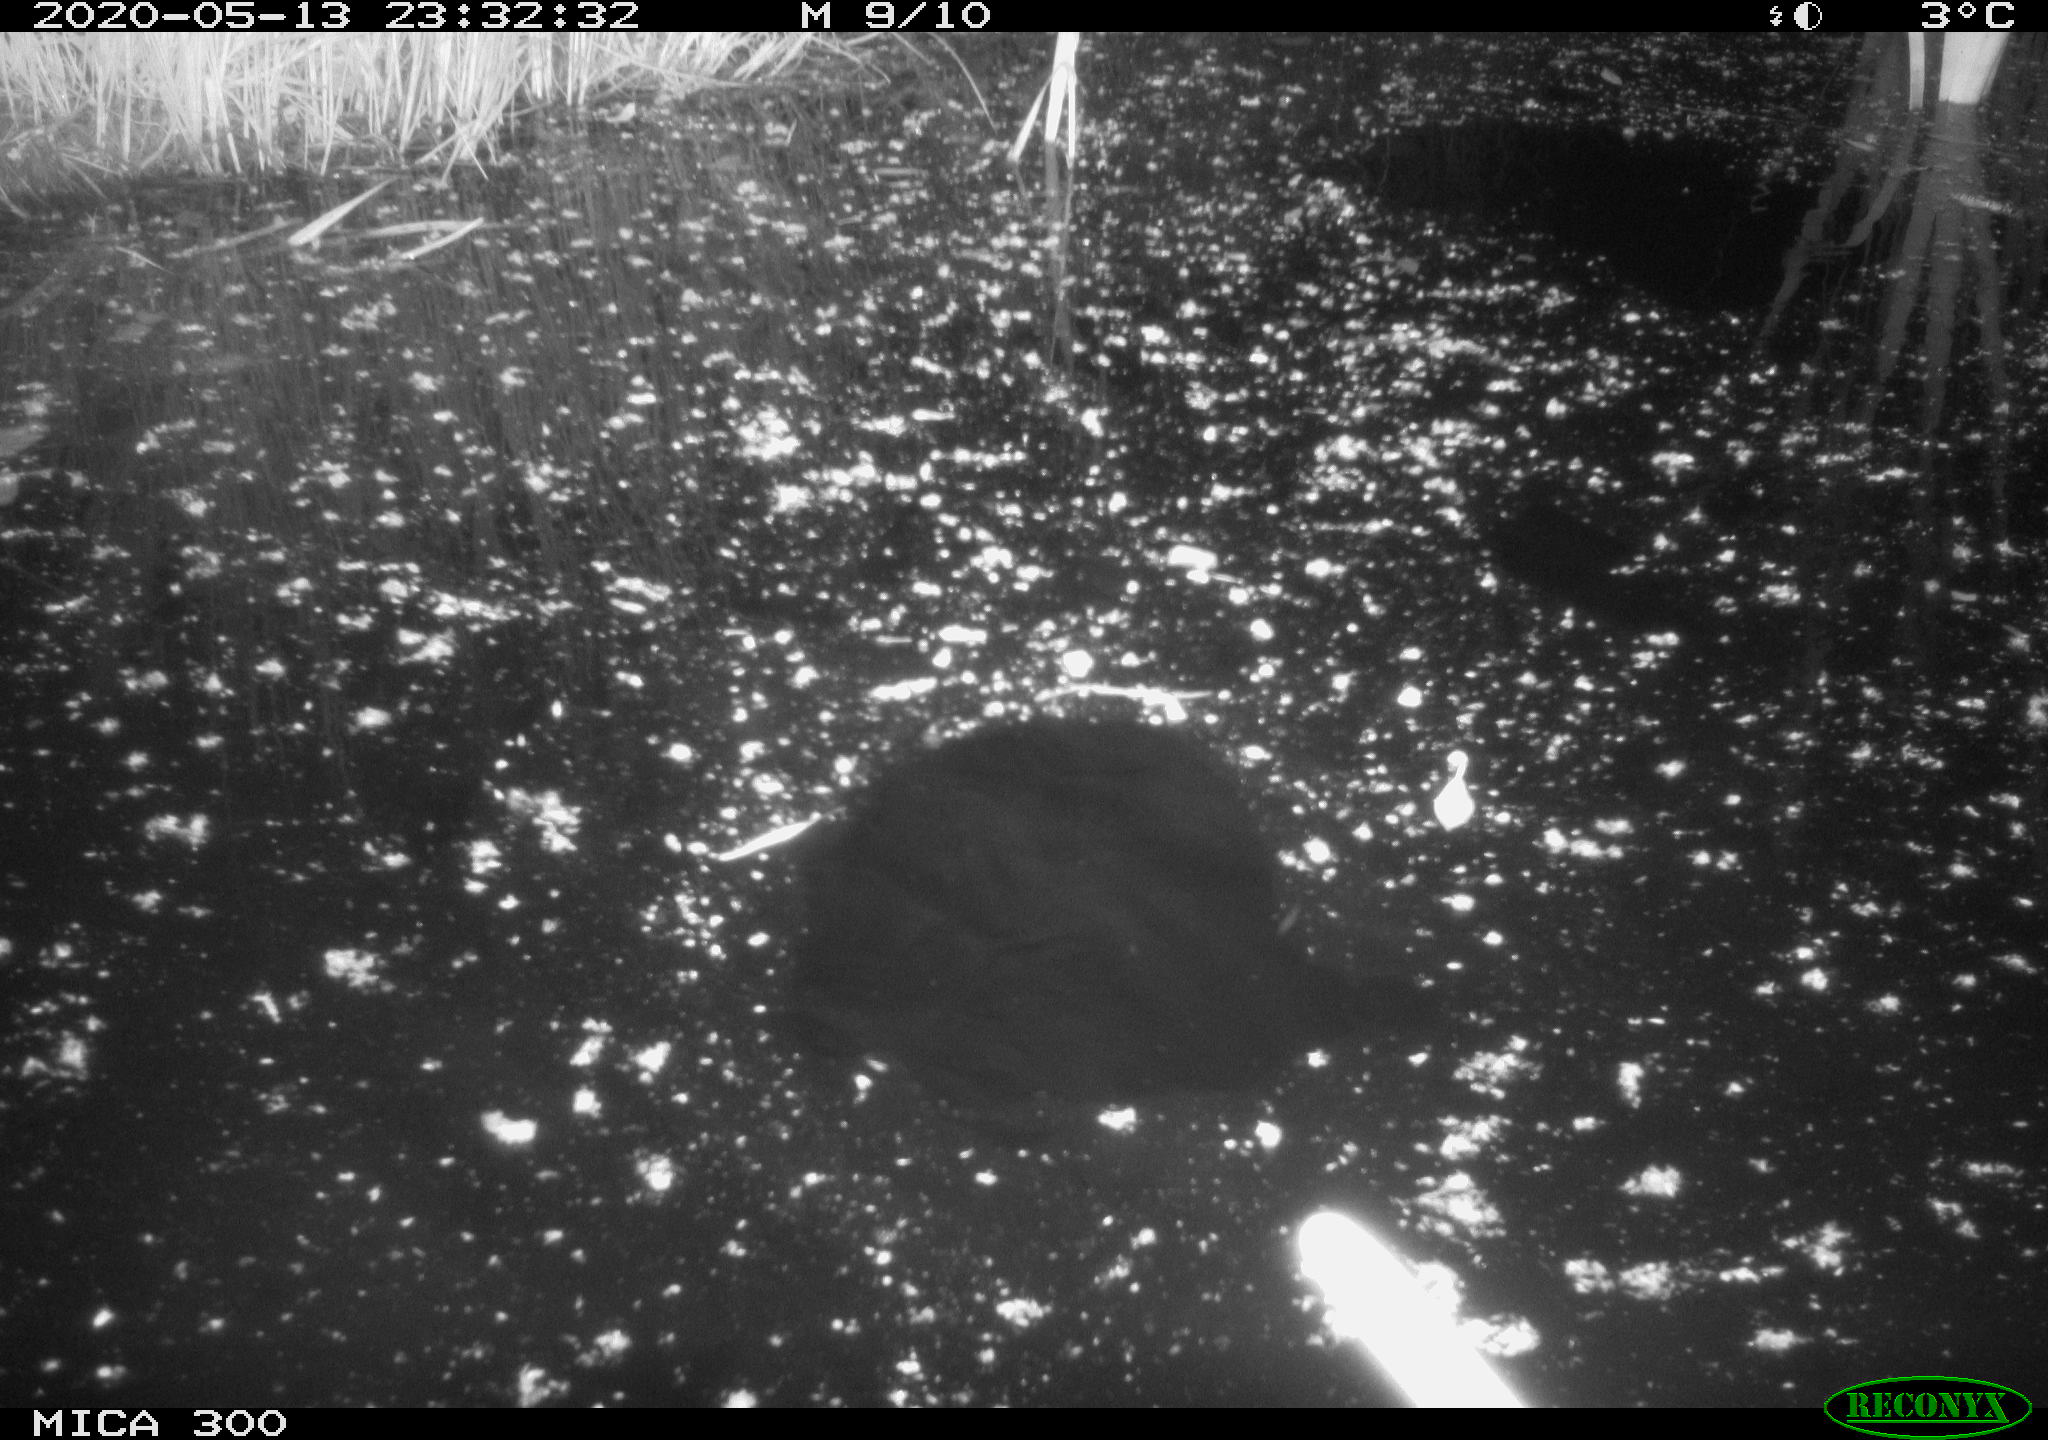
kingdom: Animalia
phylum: Chordata
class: Mammalia
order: Rodentia
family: Castoridae
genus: Castor
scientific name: Castor fiber
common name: Eurasian beaver
